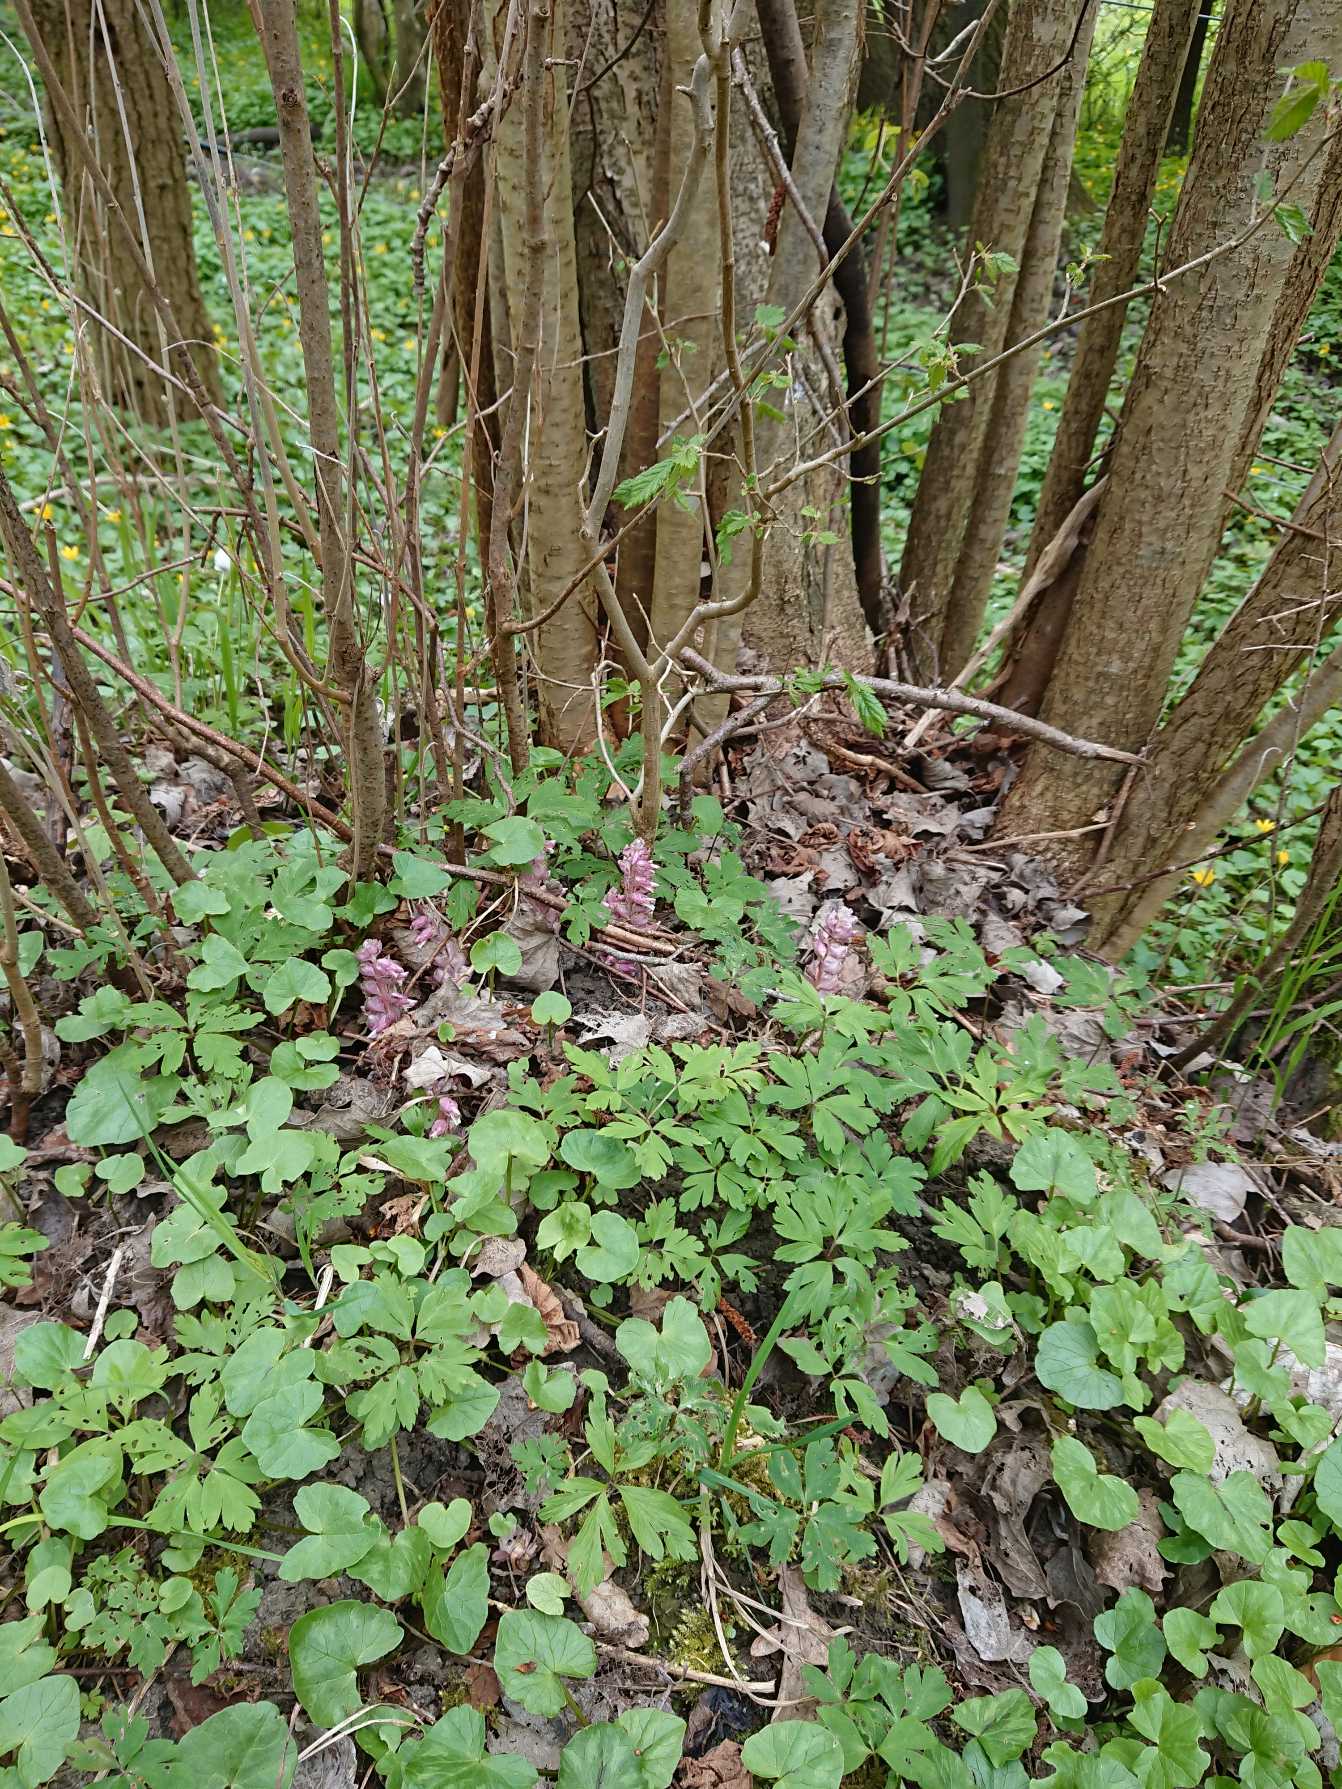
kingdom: Plantae
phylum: Tracheophyta
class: Magnoliopsida
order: Lamiales
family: Orobanchaceae
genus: Lathraea
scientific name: Lathraea squamaria
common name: Skælrod
